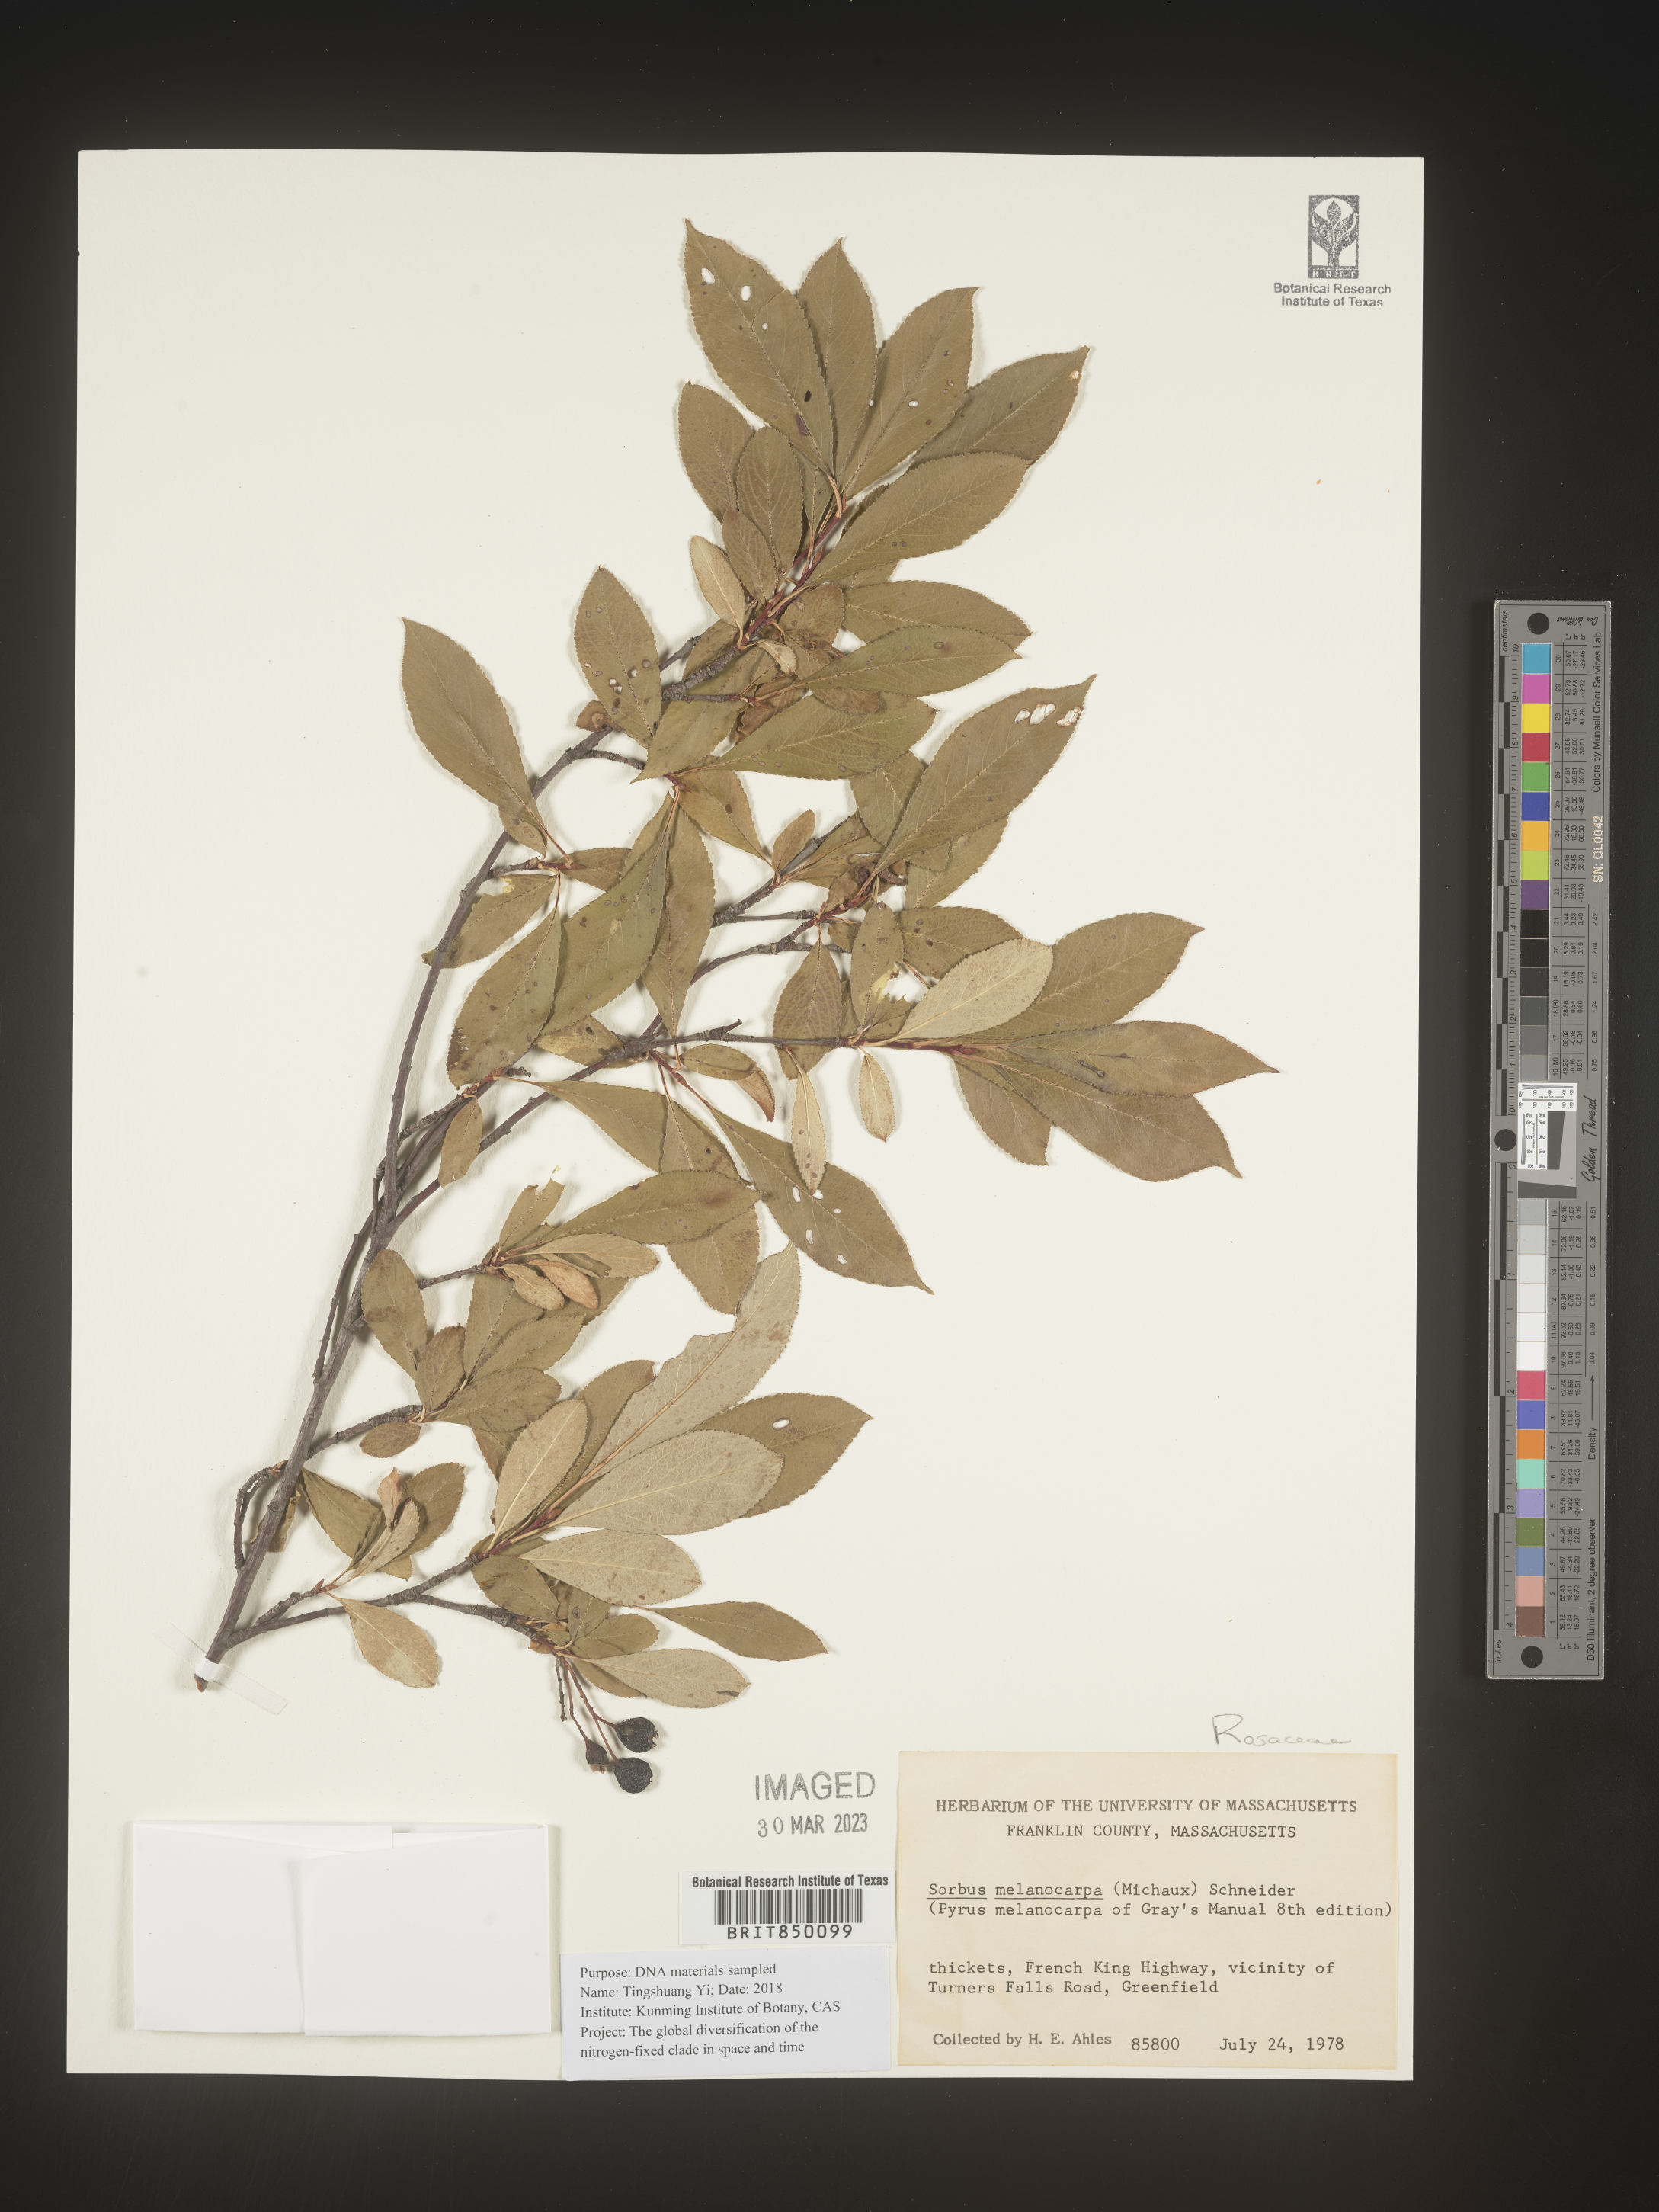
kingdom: Plantae
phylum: Tracheophyta
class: Magnoliopsida
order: Rosales
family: Rosaceae
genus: Sorbus
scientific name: Sorbus
